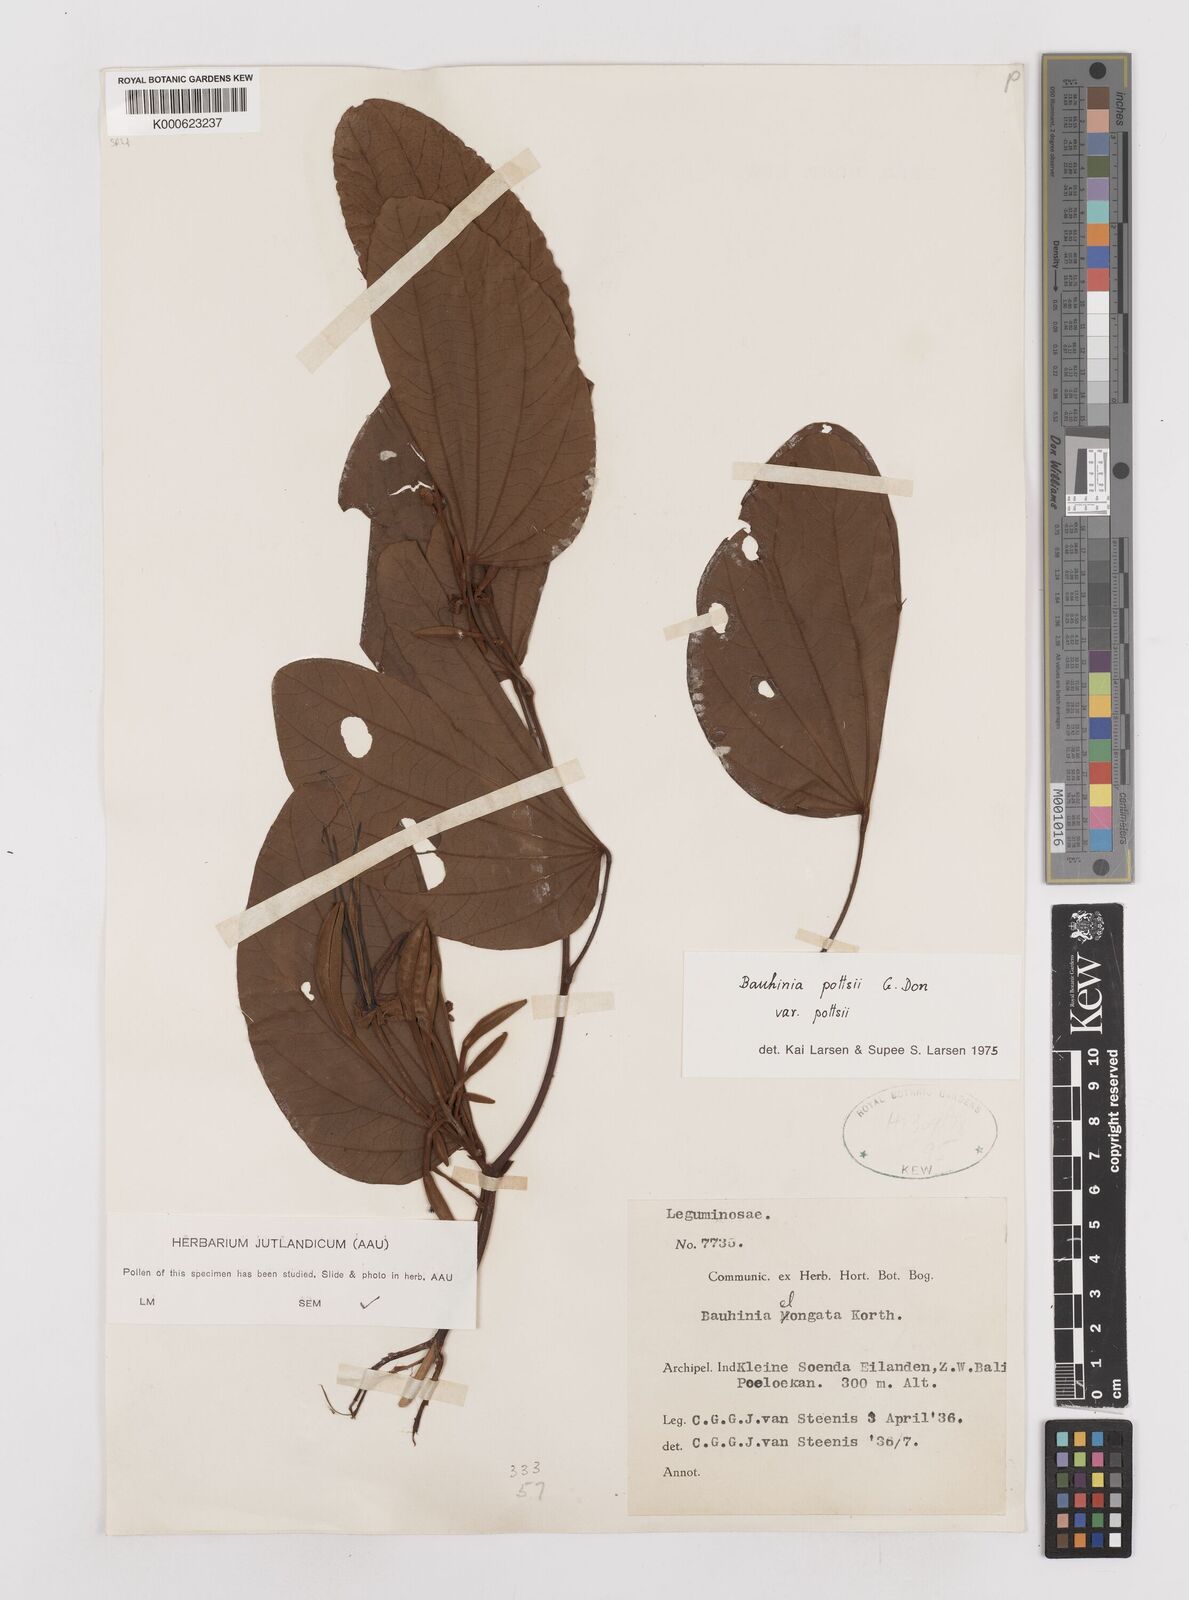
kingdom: Plantae
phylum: Tracheophyta
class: Magnoliopsida
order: Fabales
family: Fabaceae
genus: Bauhinia
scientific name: Bauhinia
